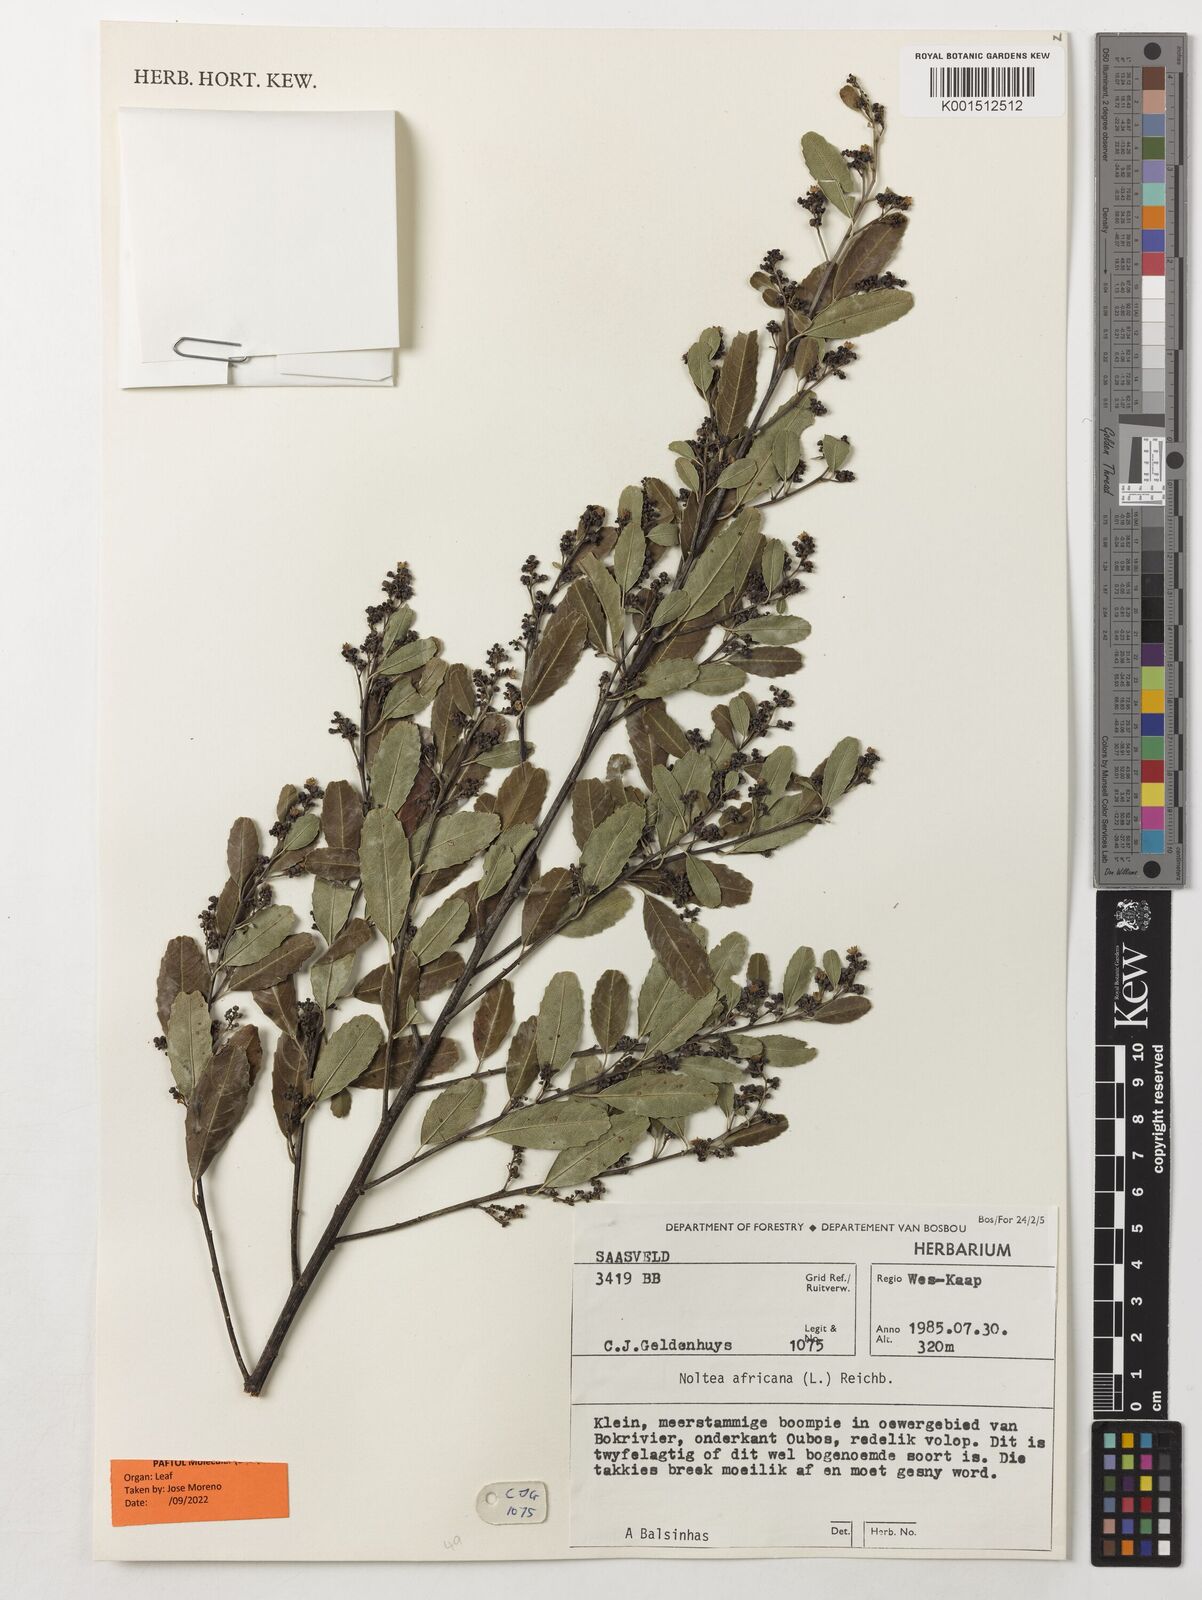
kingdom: Plantae
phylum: Tracheophyta
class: Magnoliopsida
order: Rosales
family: Rhamnaceae
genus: Noltea
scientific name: Noltea africana
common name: Soapbush
